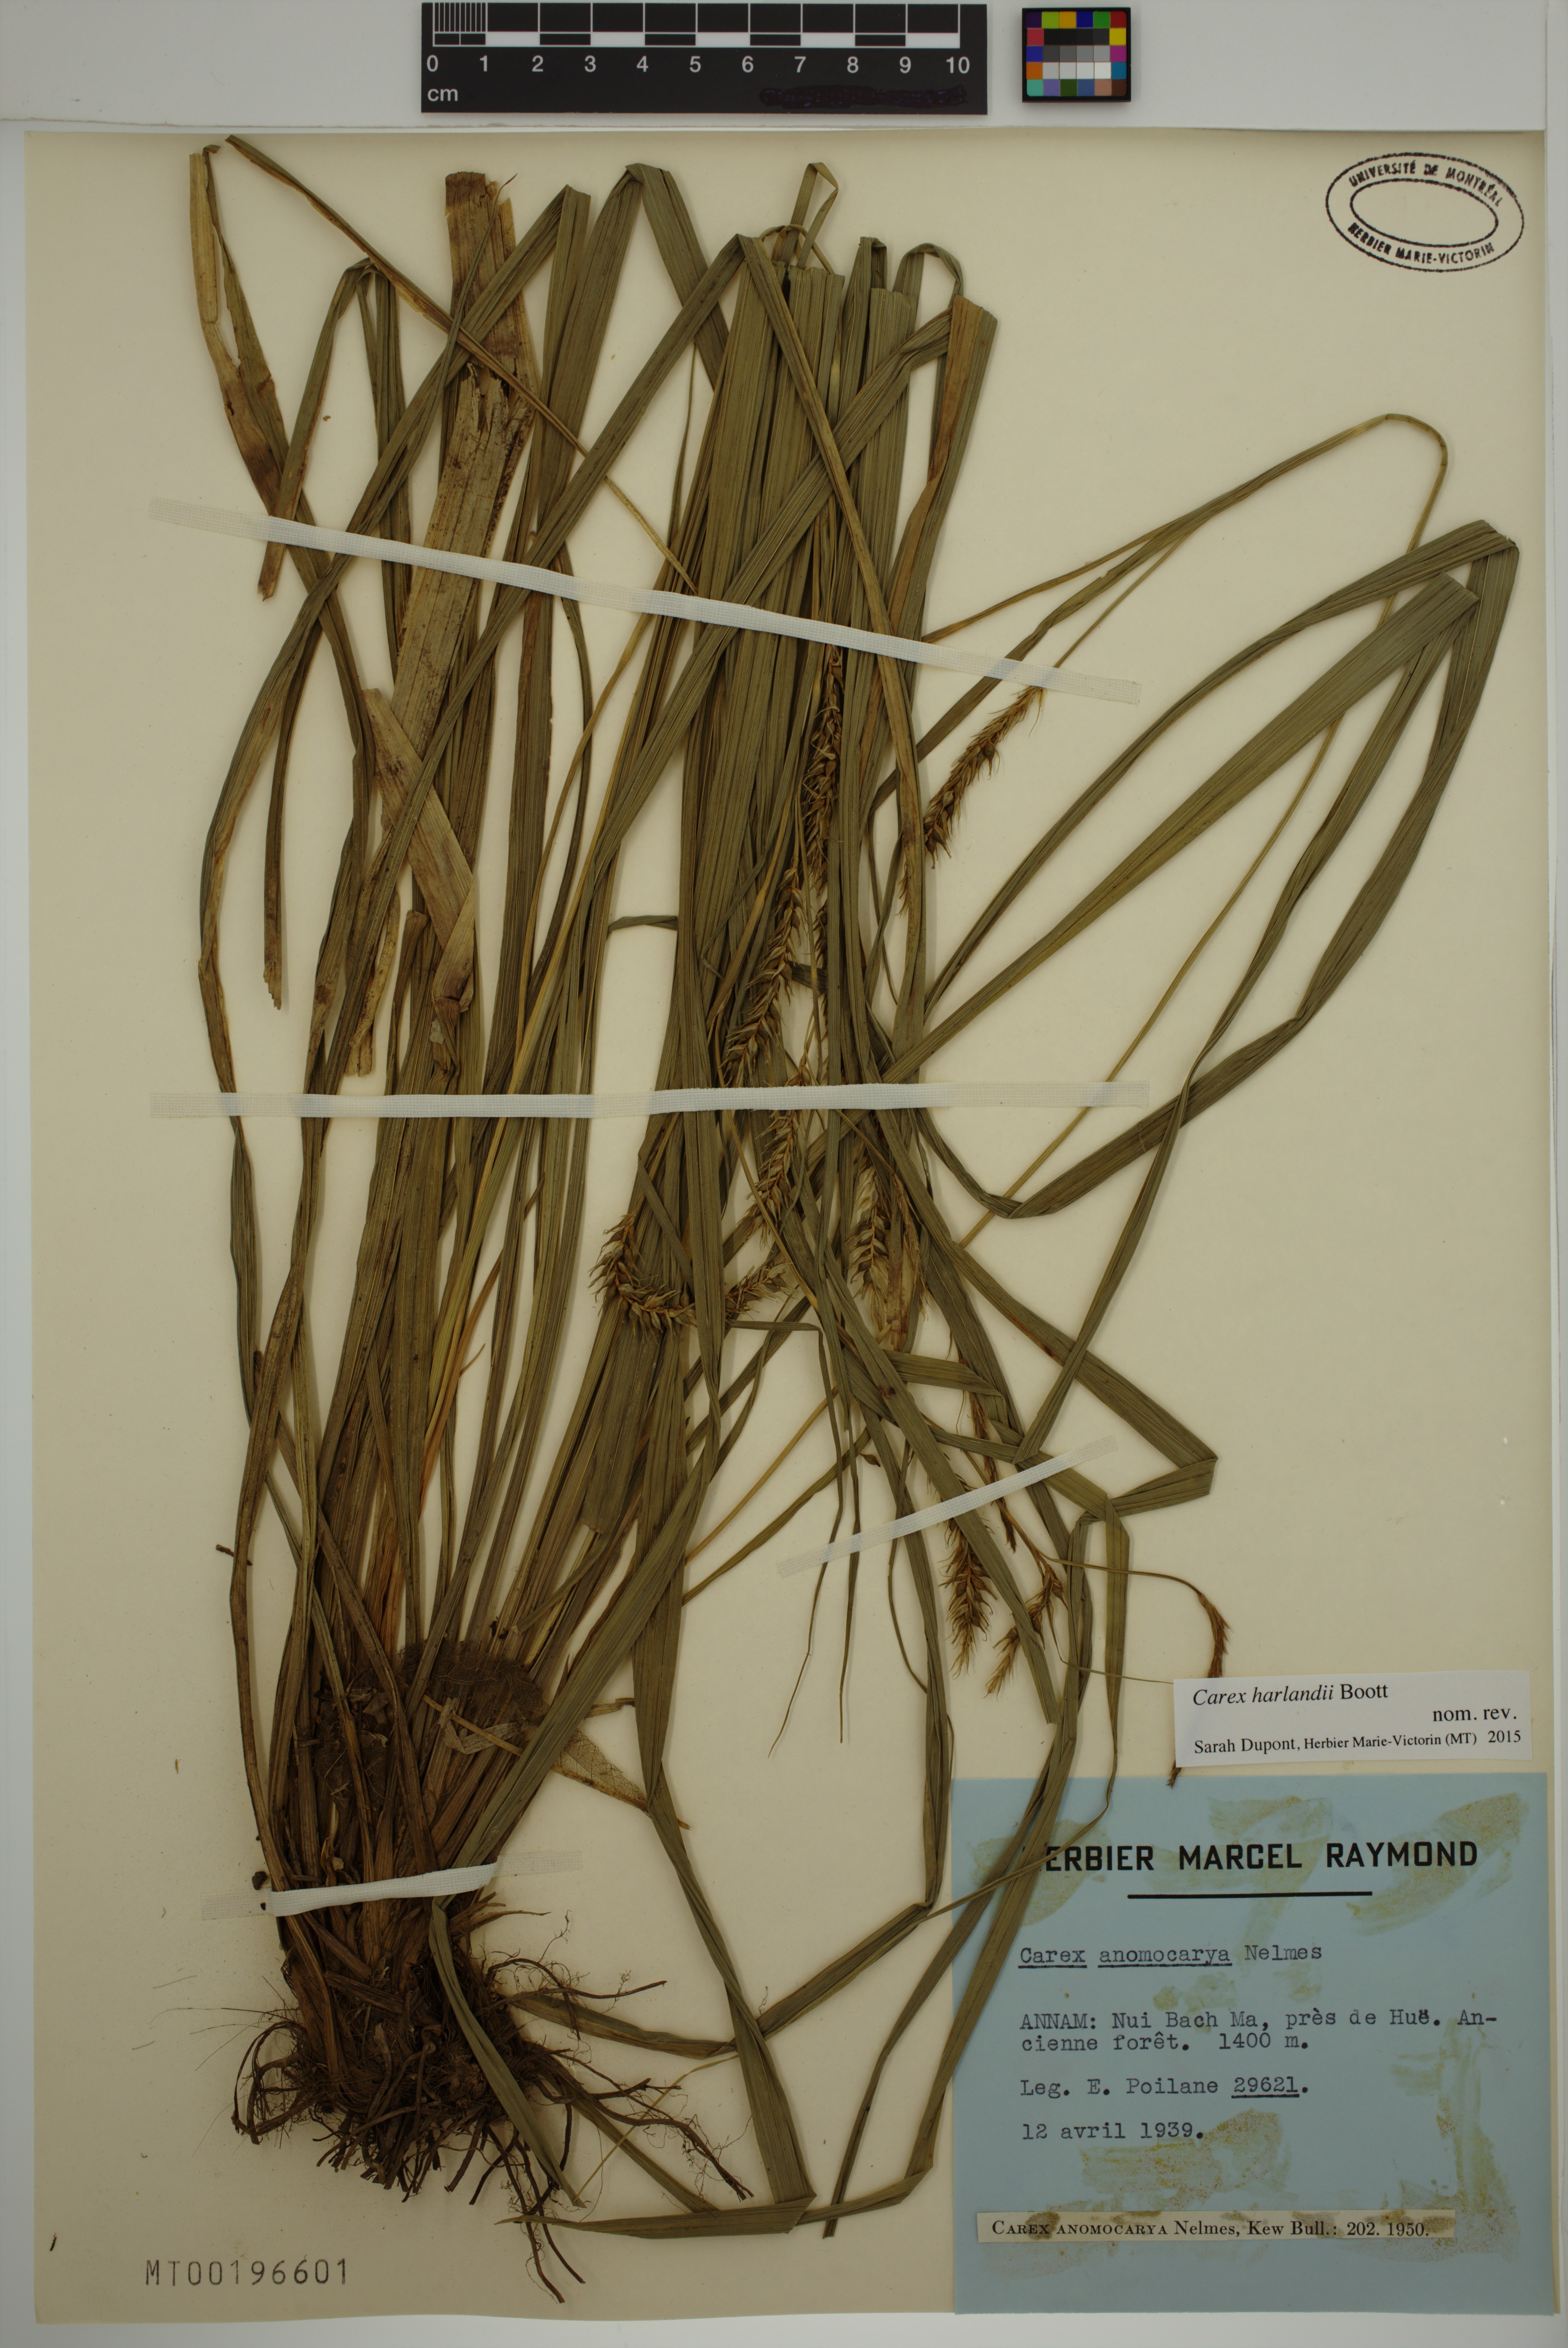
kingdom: Plantae
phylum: Tracheophyta
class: Liliopsida
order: Poales
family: Cyperaceae
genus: Carex
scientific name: Carex harlandii
